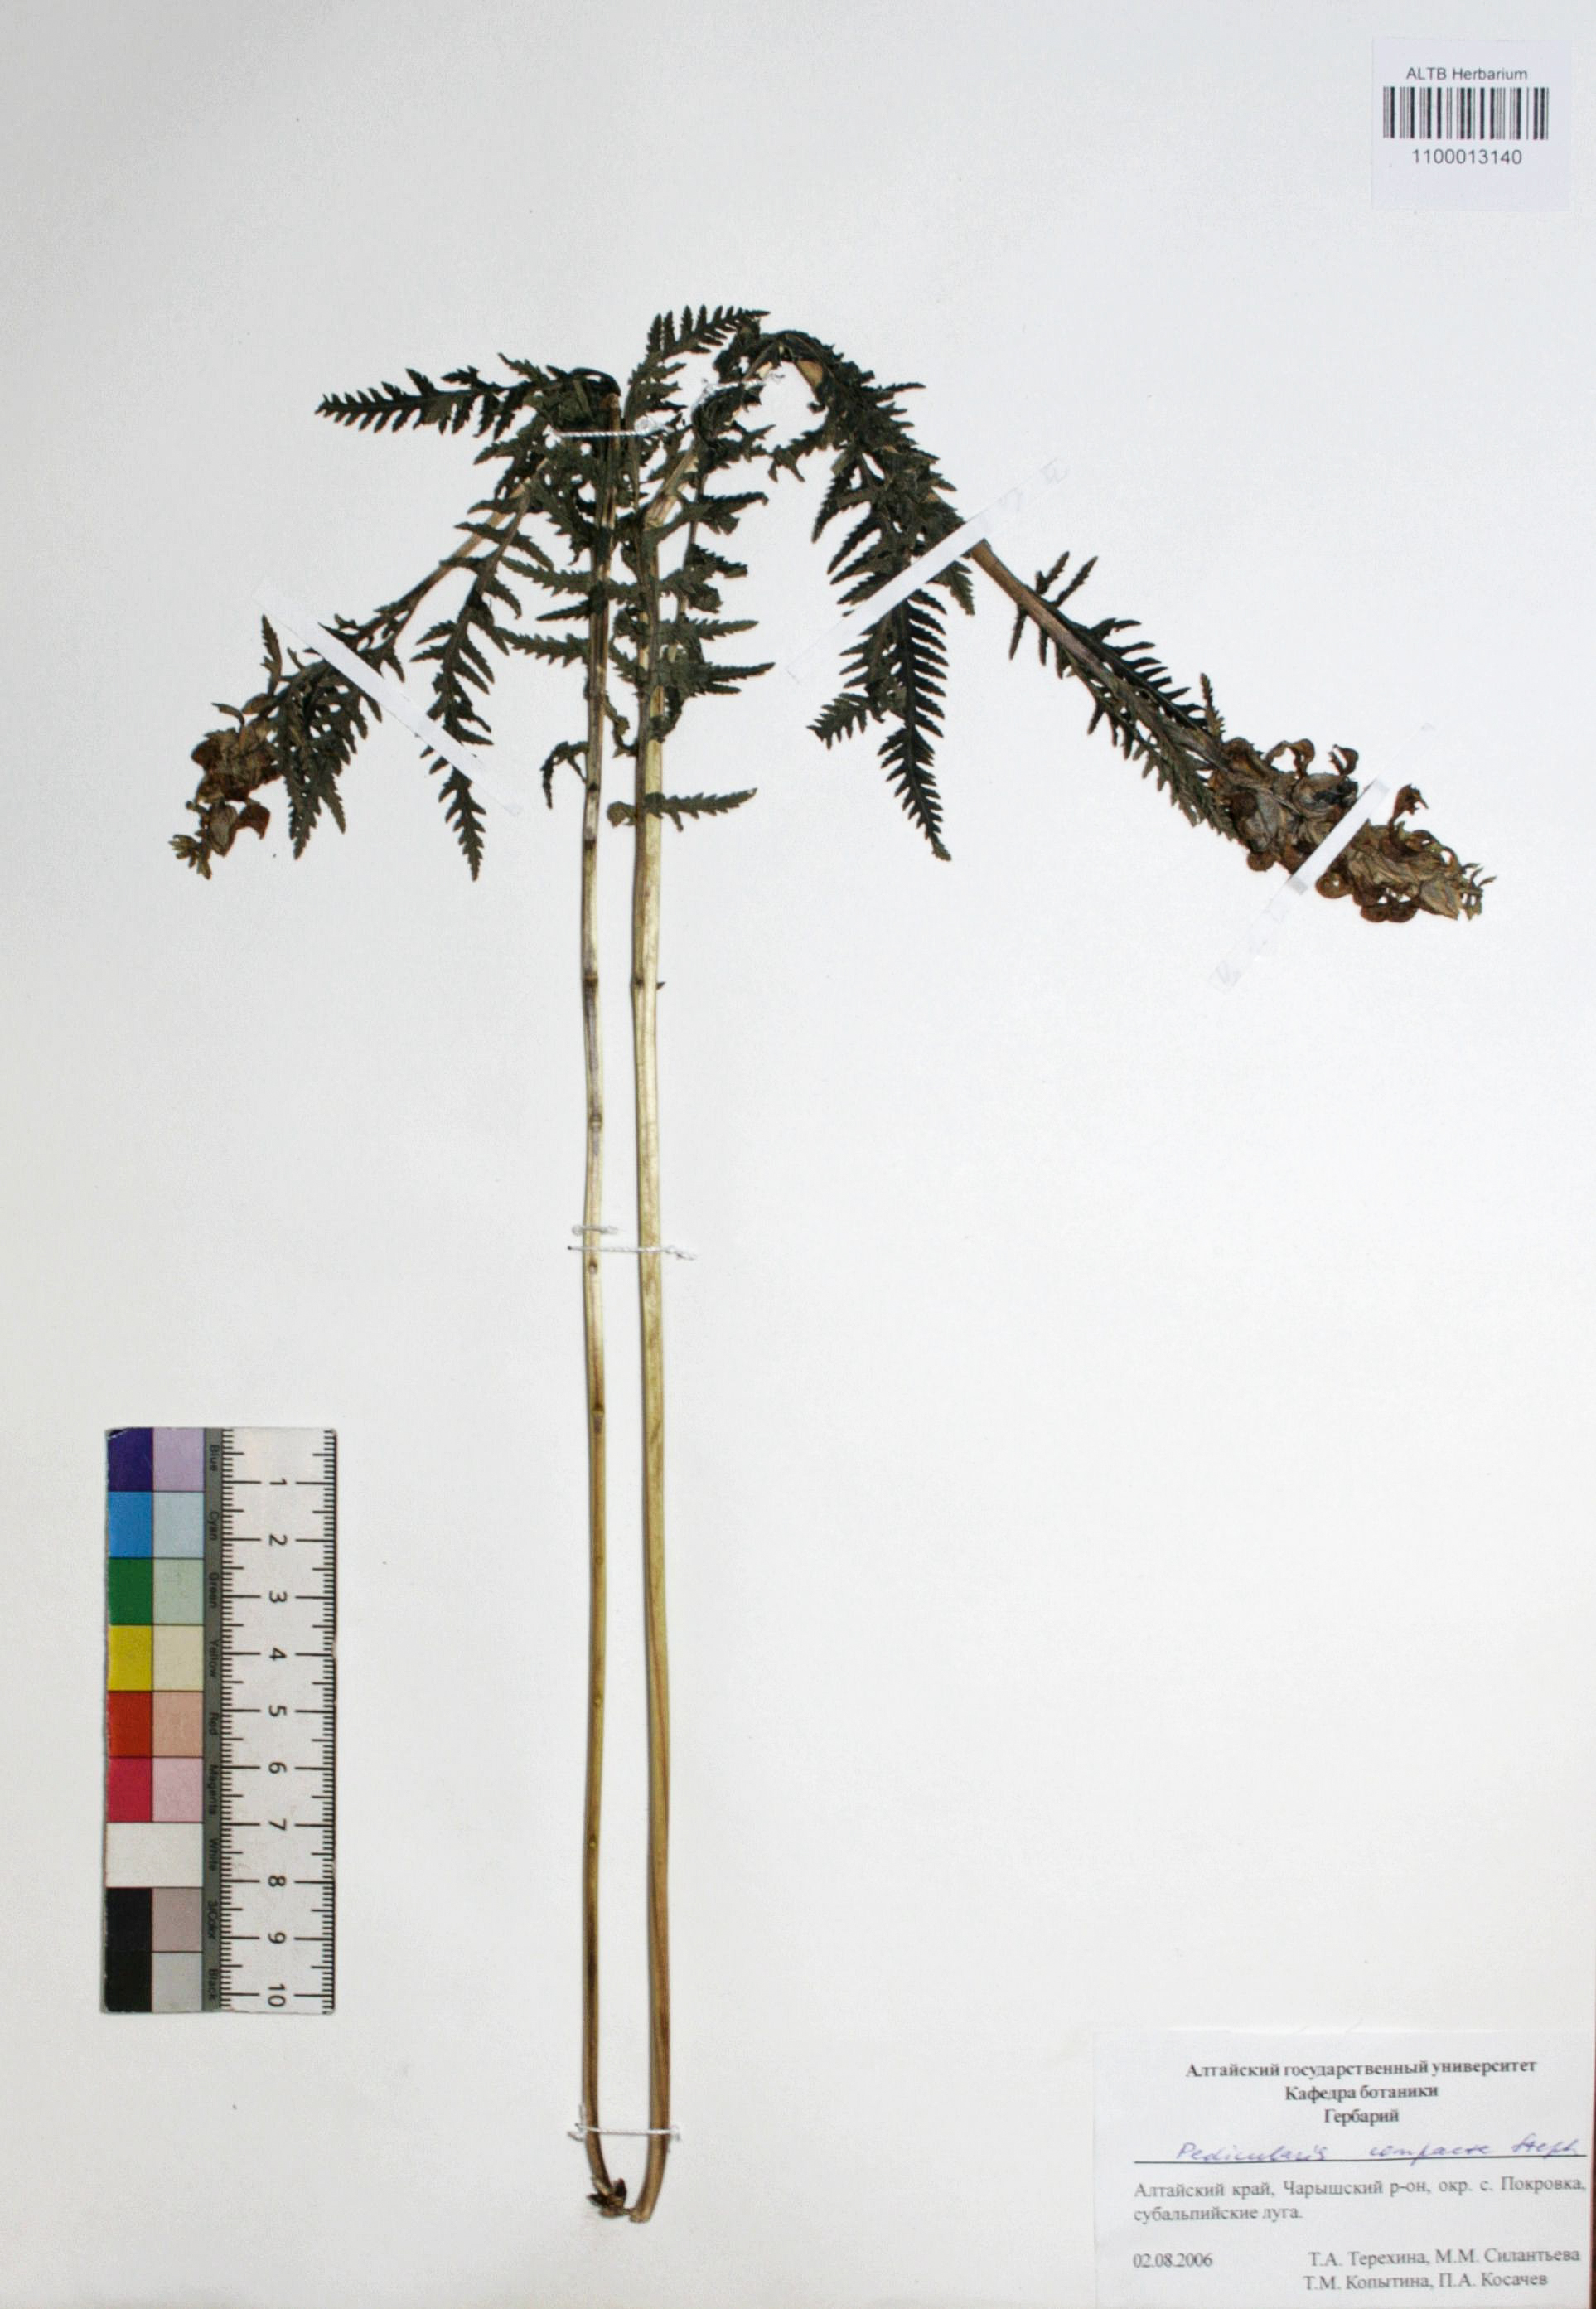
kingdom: Plantae
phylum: Tracheophyta
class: Magnoliopsida
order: Lamiales
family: Orobanchaceae
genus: Pedicularis
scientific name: Pedicularis compacta
